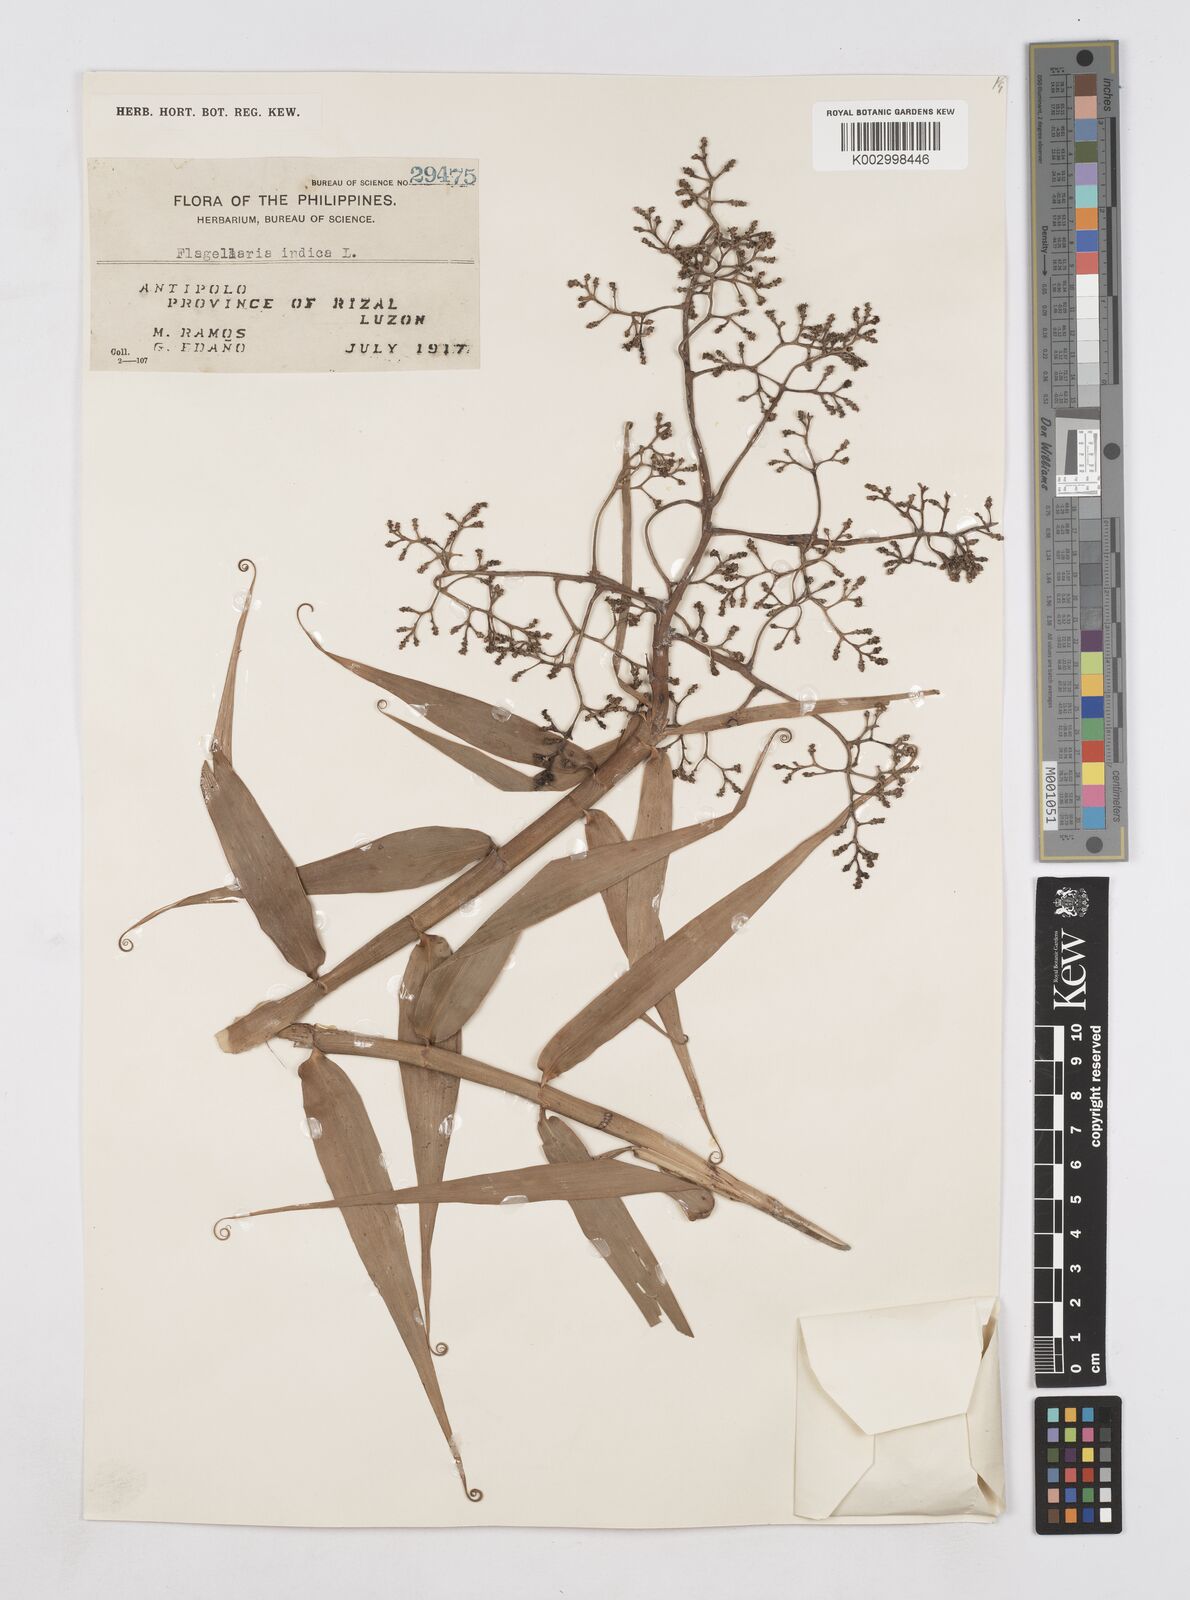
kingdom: Plantae
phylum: Tracheophyta
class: Liliopsida
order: Poales
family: Flagellariaceae
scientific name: Flagellariaceae
